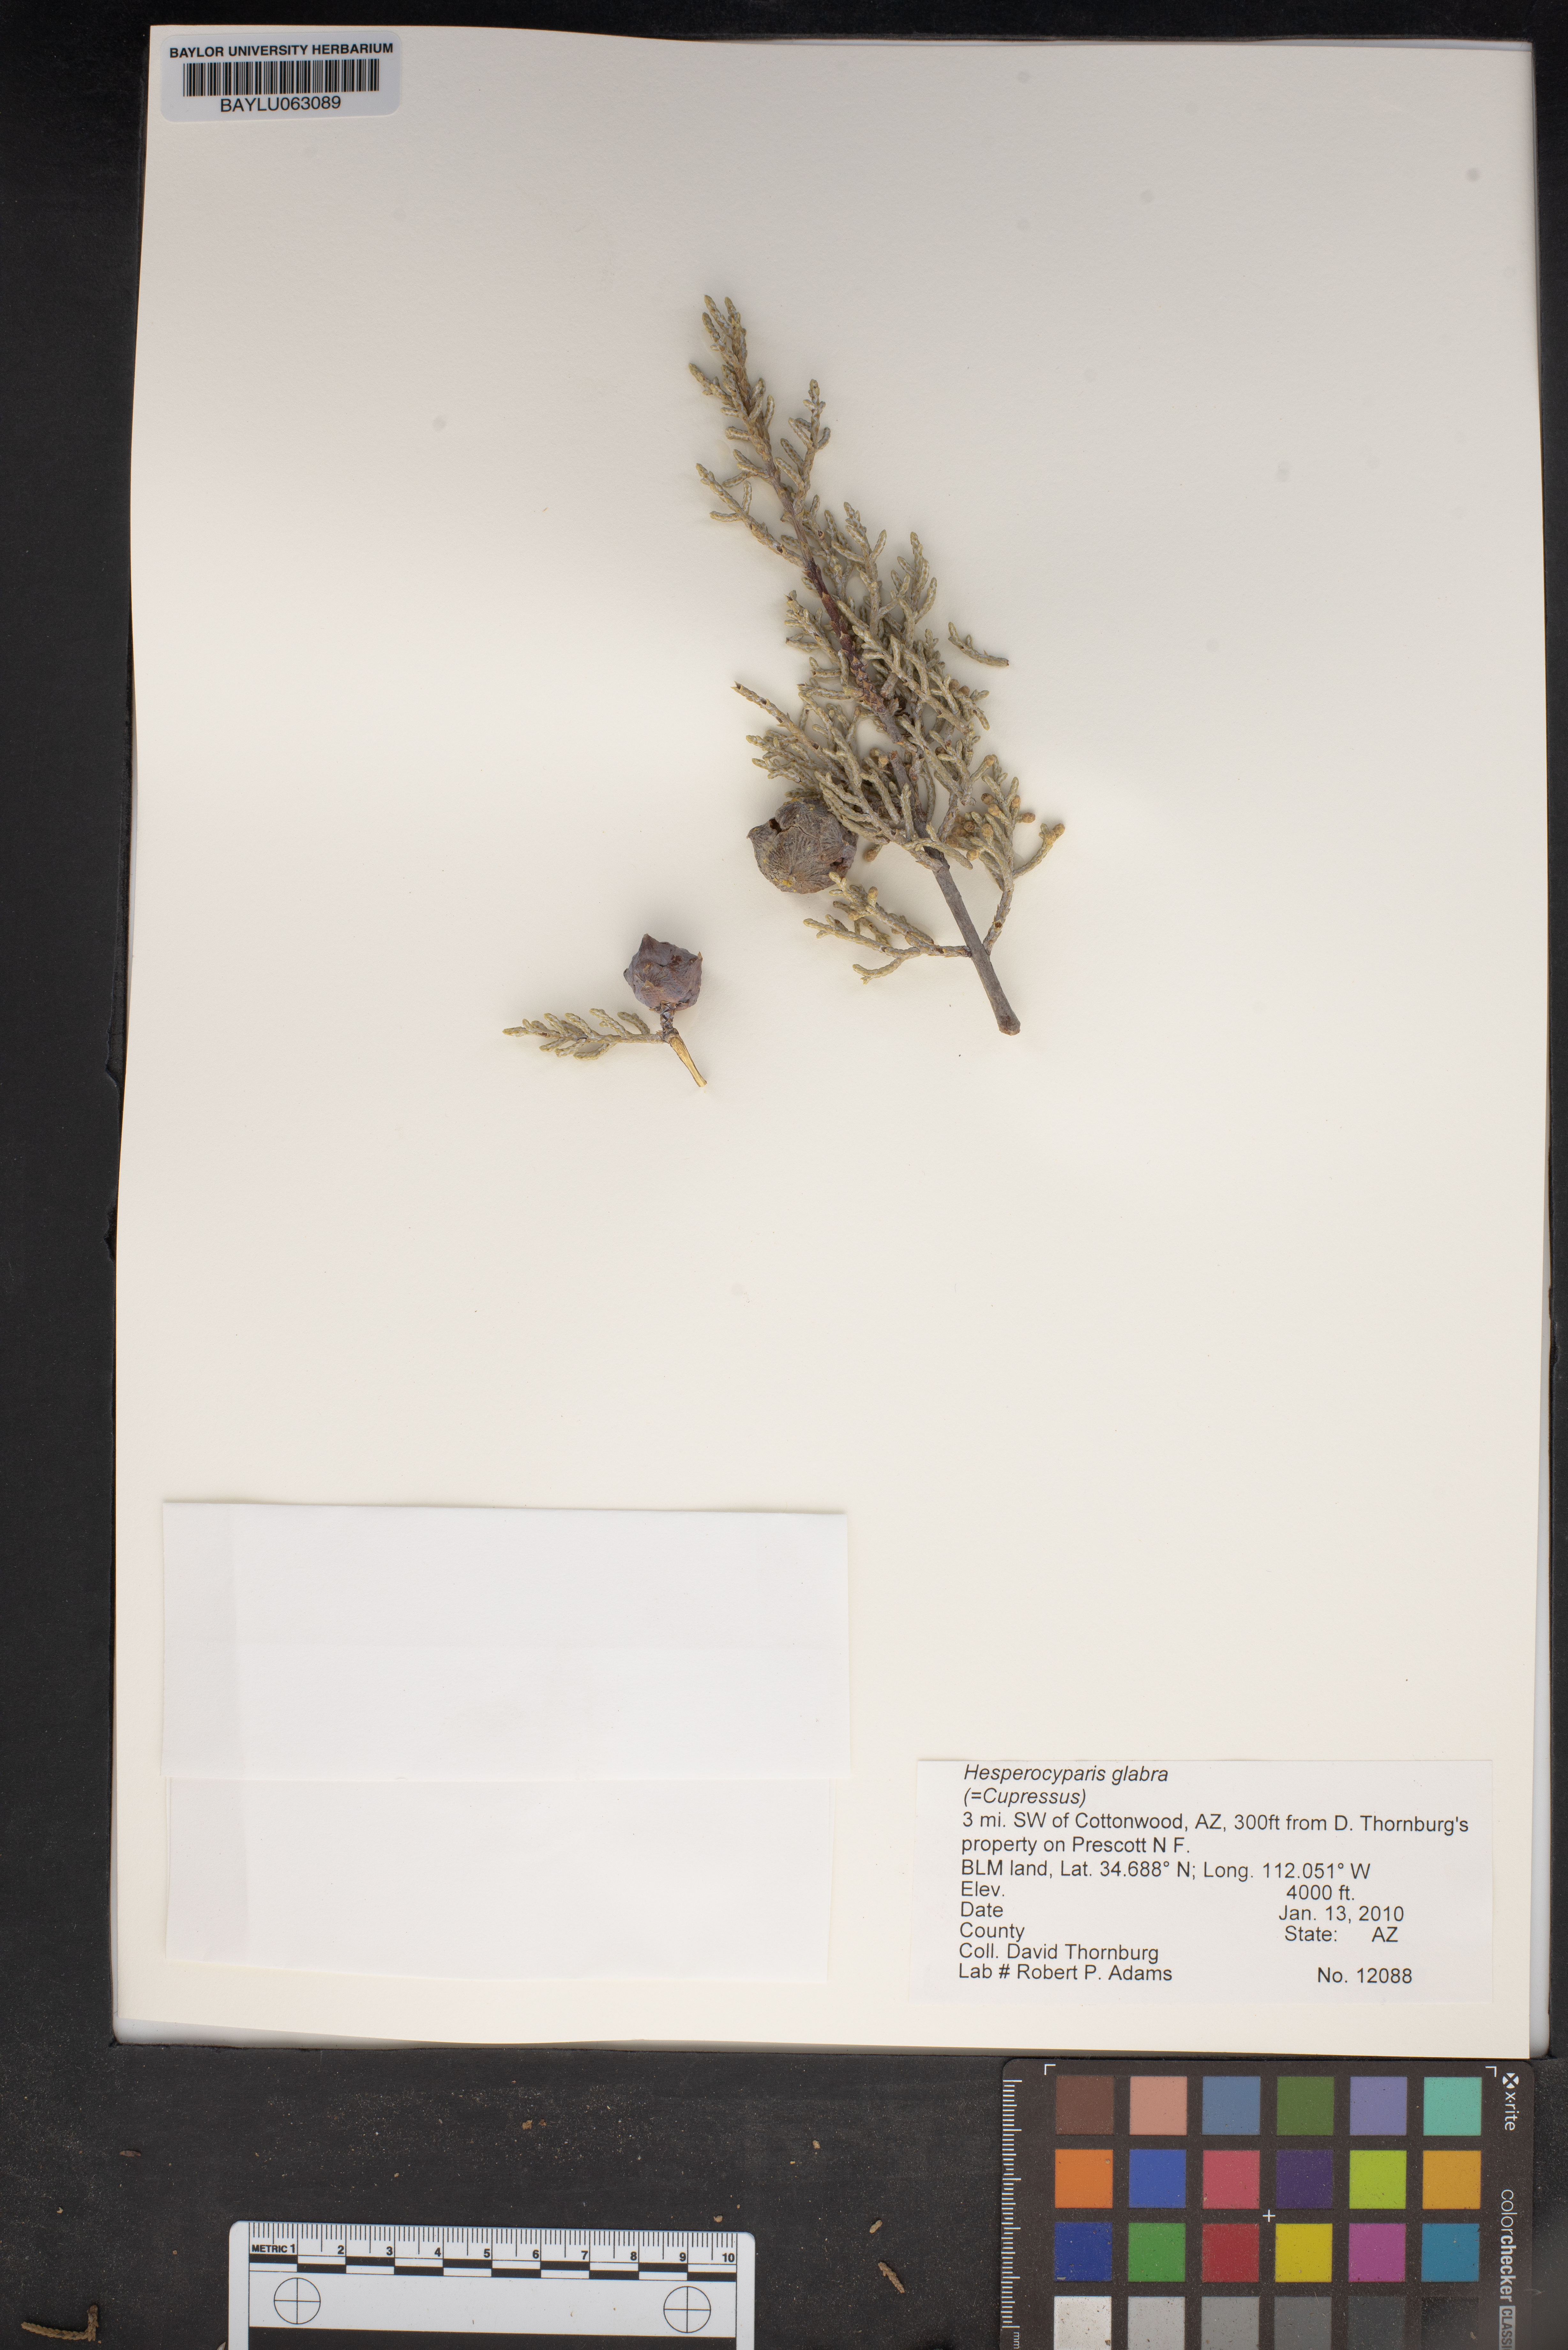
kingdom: Plantae
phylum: Tracheophyta
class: Pinopsida
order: Pinales
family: Cupressaceae
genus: Cupressus
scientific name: Cupressus arizonica
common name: Arizona cypress
